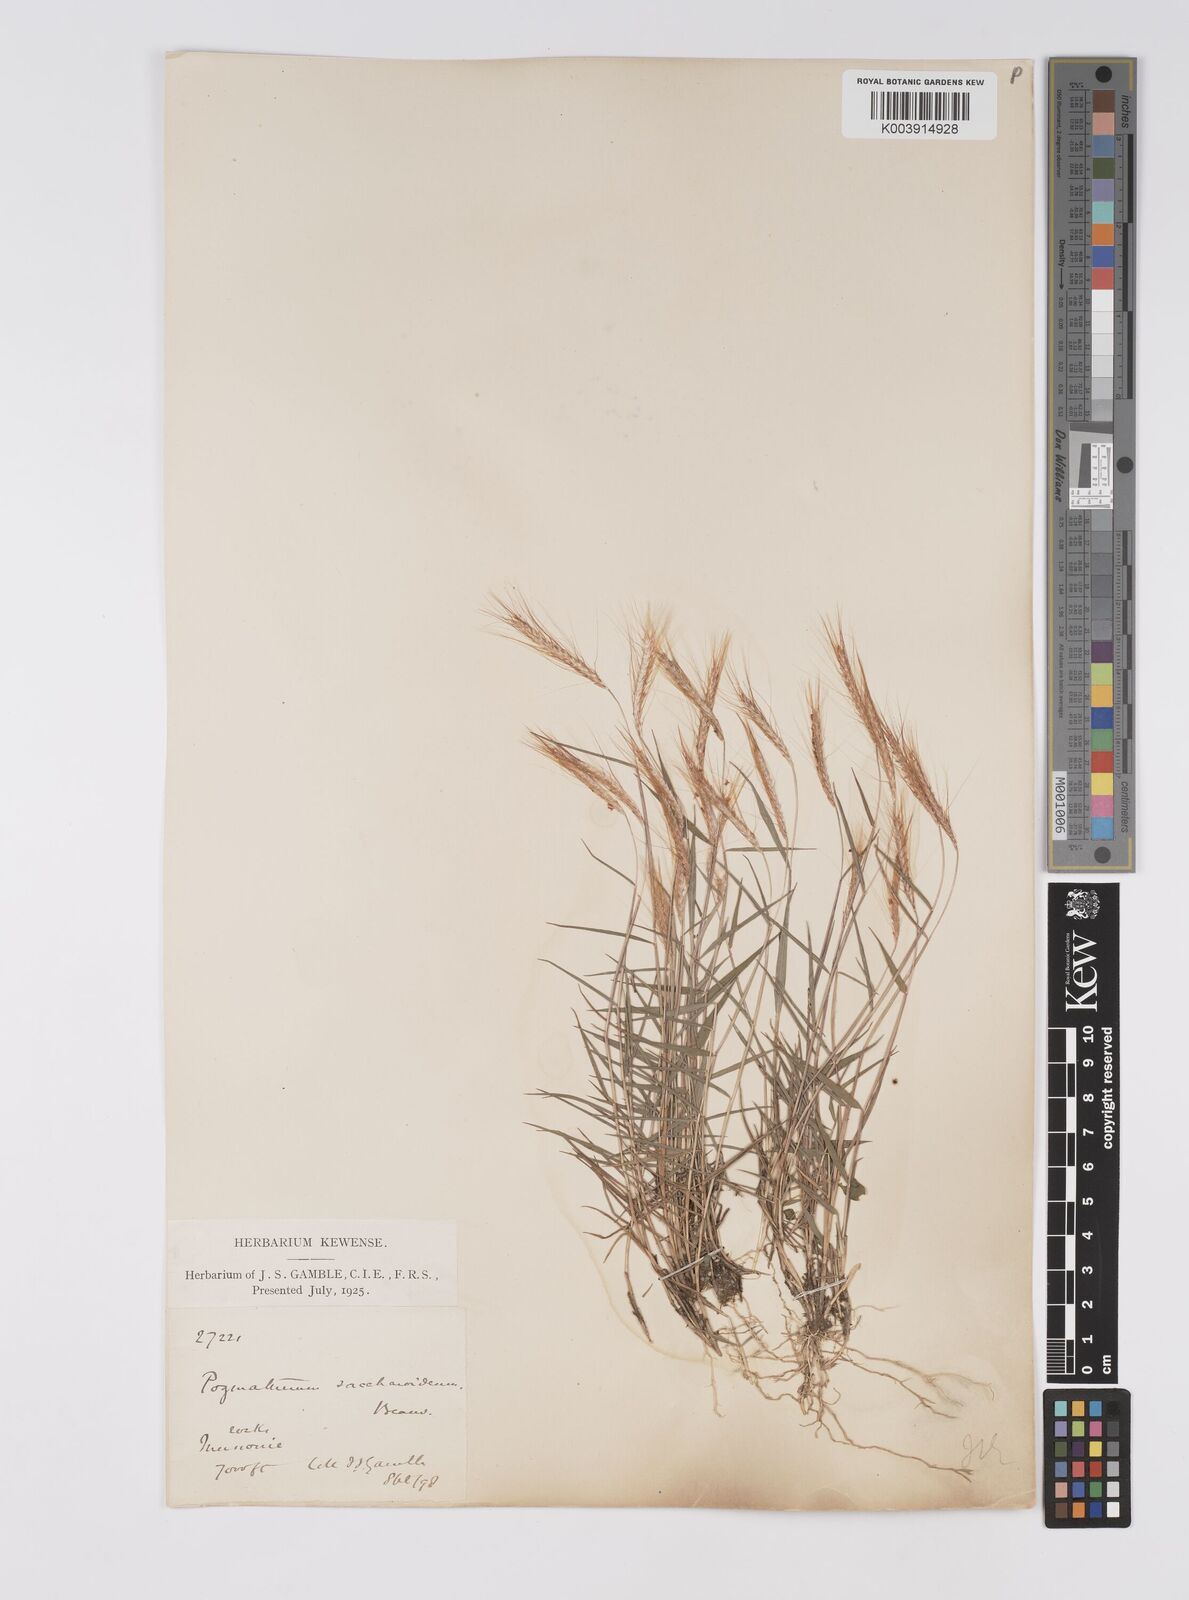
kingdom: Plantae
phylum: Tracheophyta
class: Liliopsida
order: Poales
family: Poaceae
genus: Pogonatherum
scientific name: Pogonatherum paniceum
